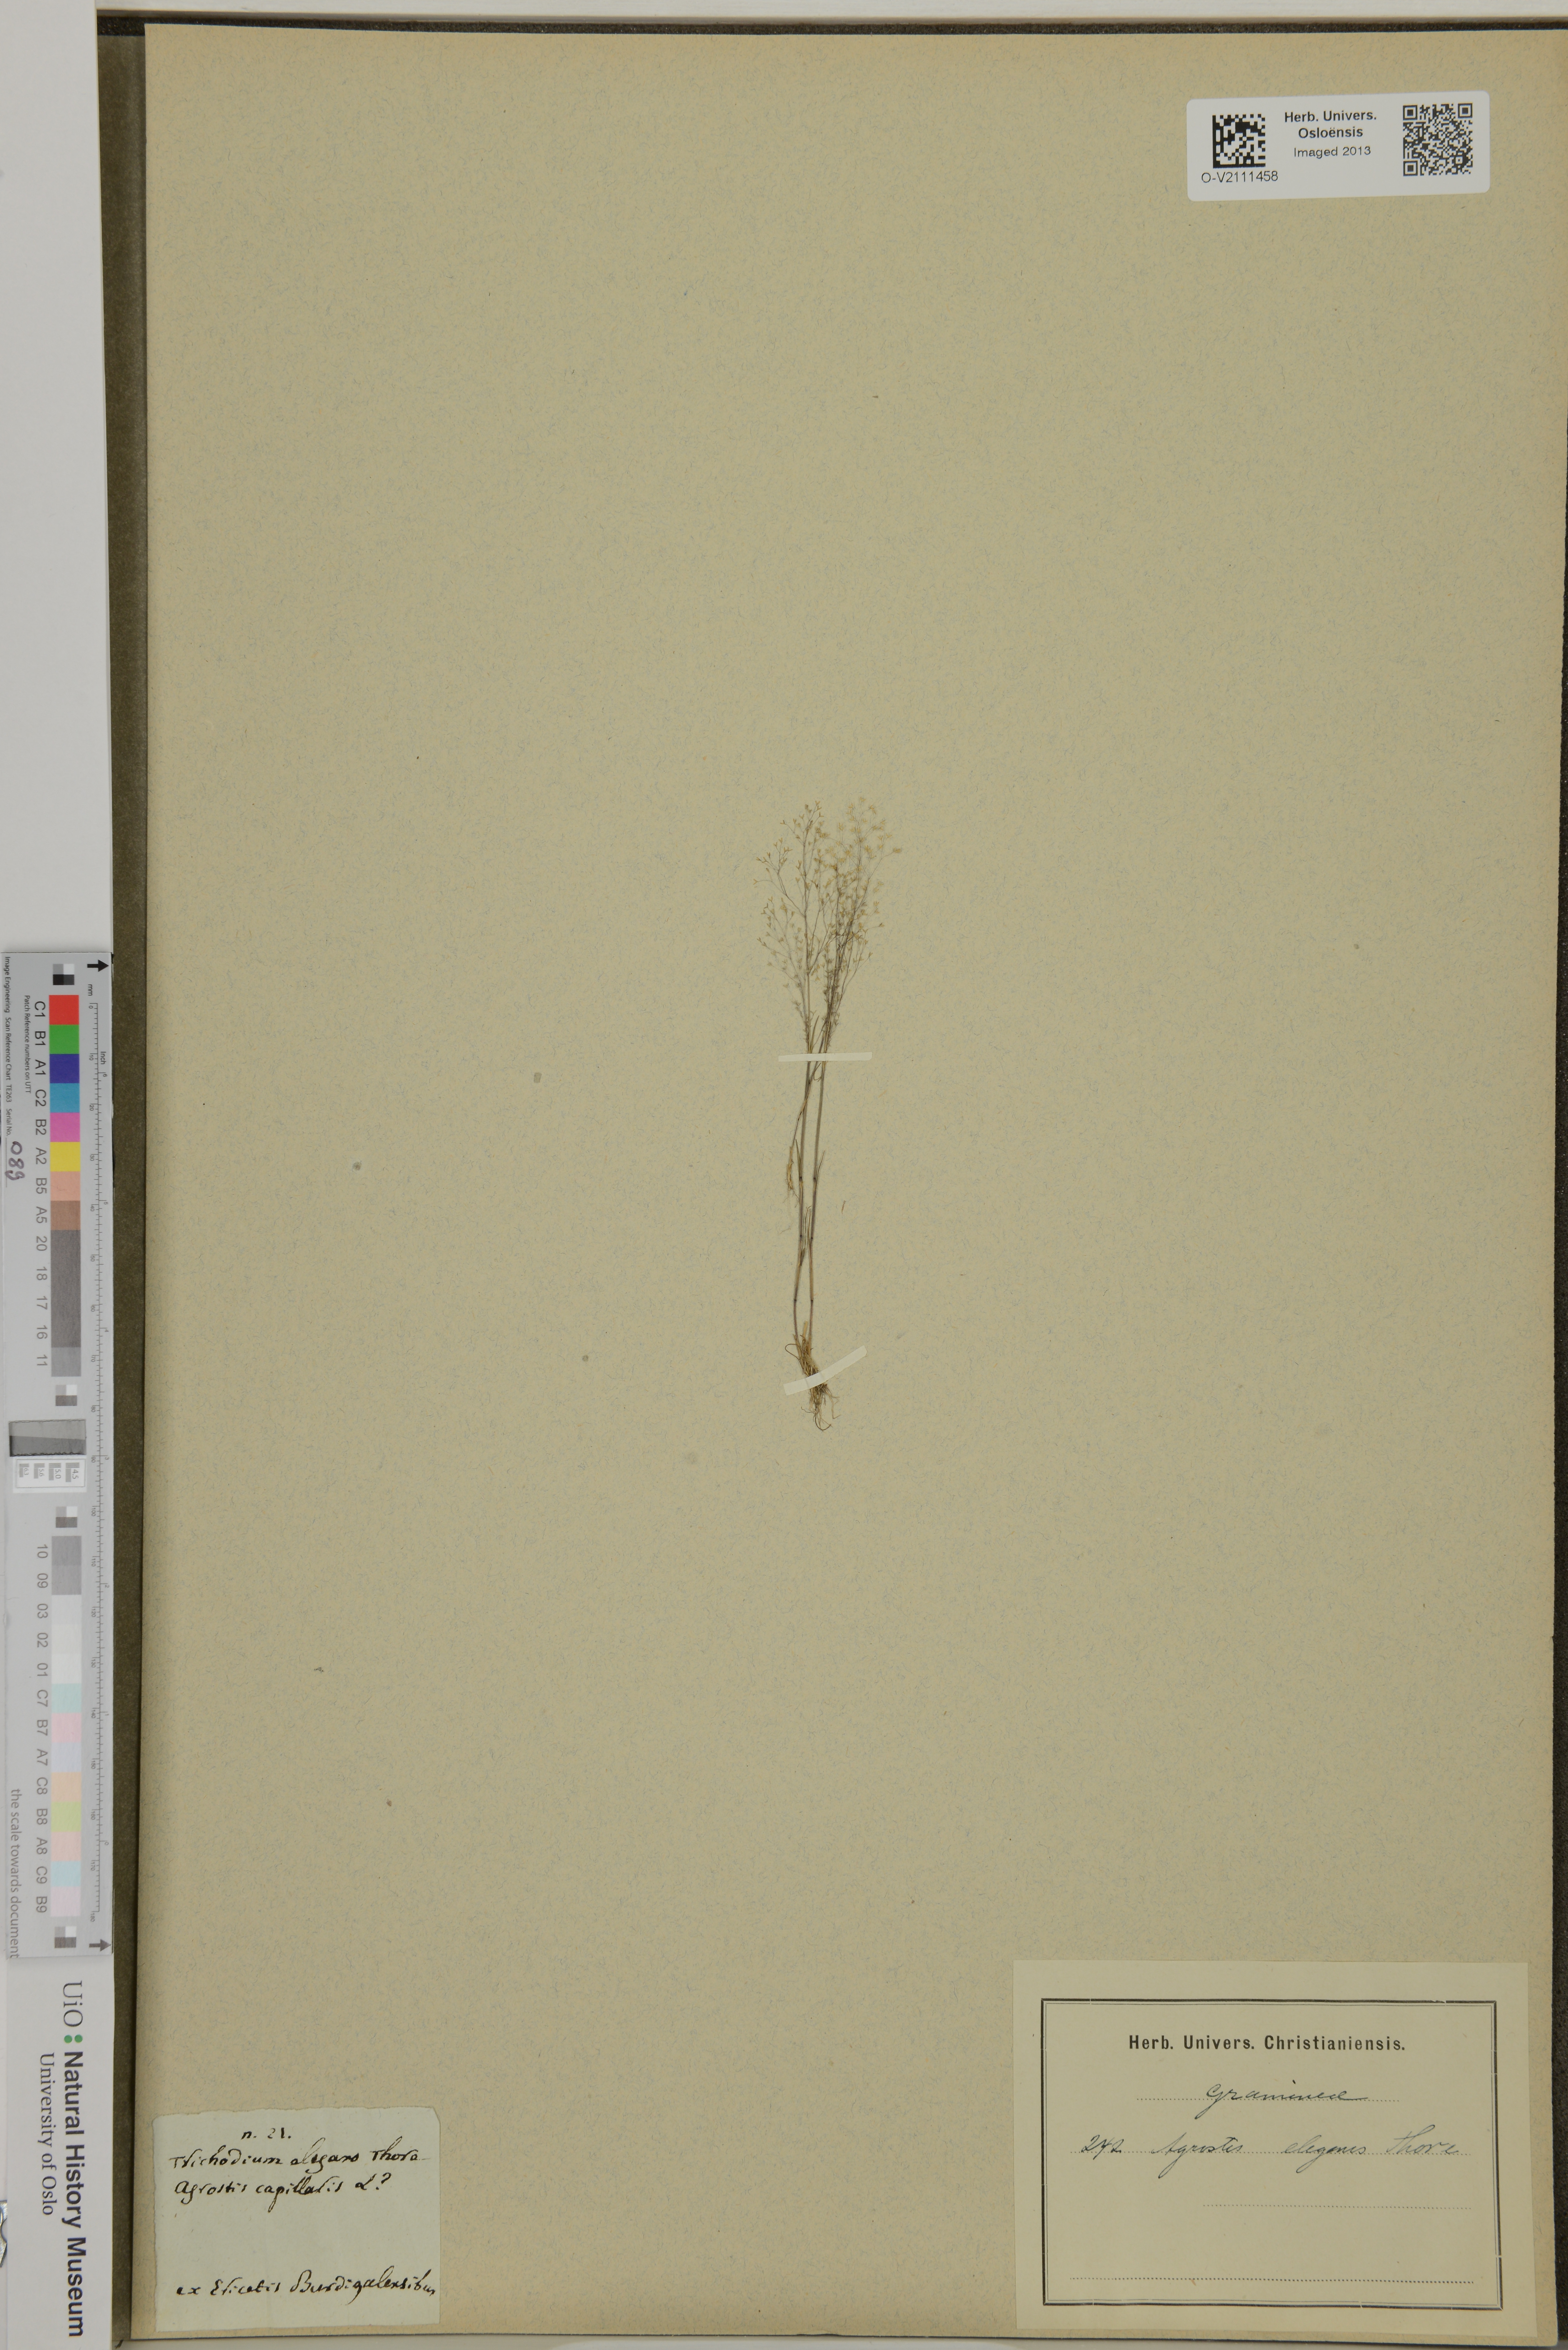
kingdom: Plantae
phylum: Tracheophyta
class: Liliopsida
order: Poales
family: Poaceae
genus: Agrostis
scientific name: Agrostis
